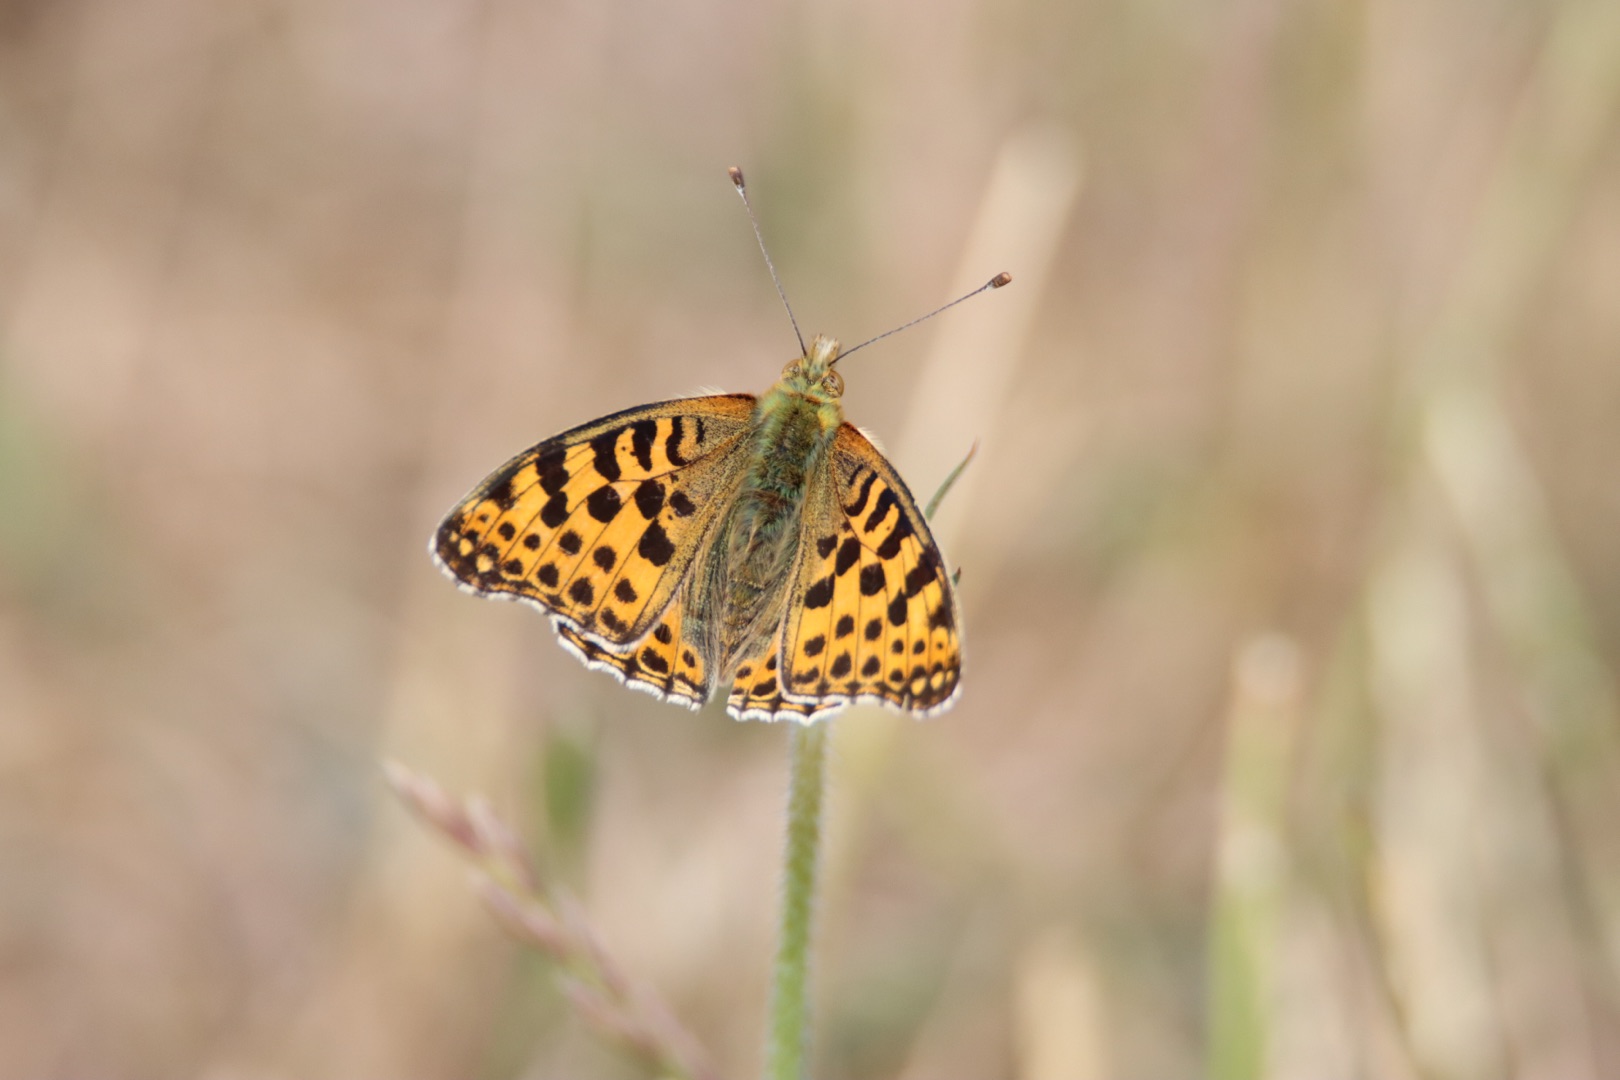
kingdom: Animalia
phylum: Arthropoda
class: Insecta
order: Lepidoptera
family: Nymphalidae
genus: Issoria
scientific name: Issoria lathonia
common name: Storplettet perlemorsommerfugl
